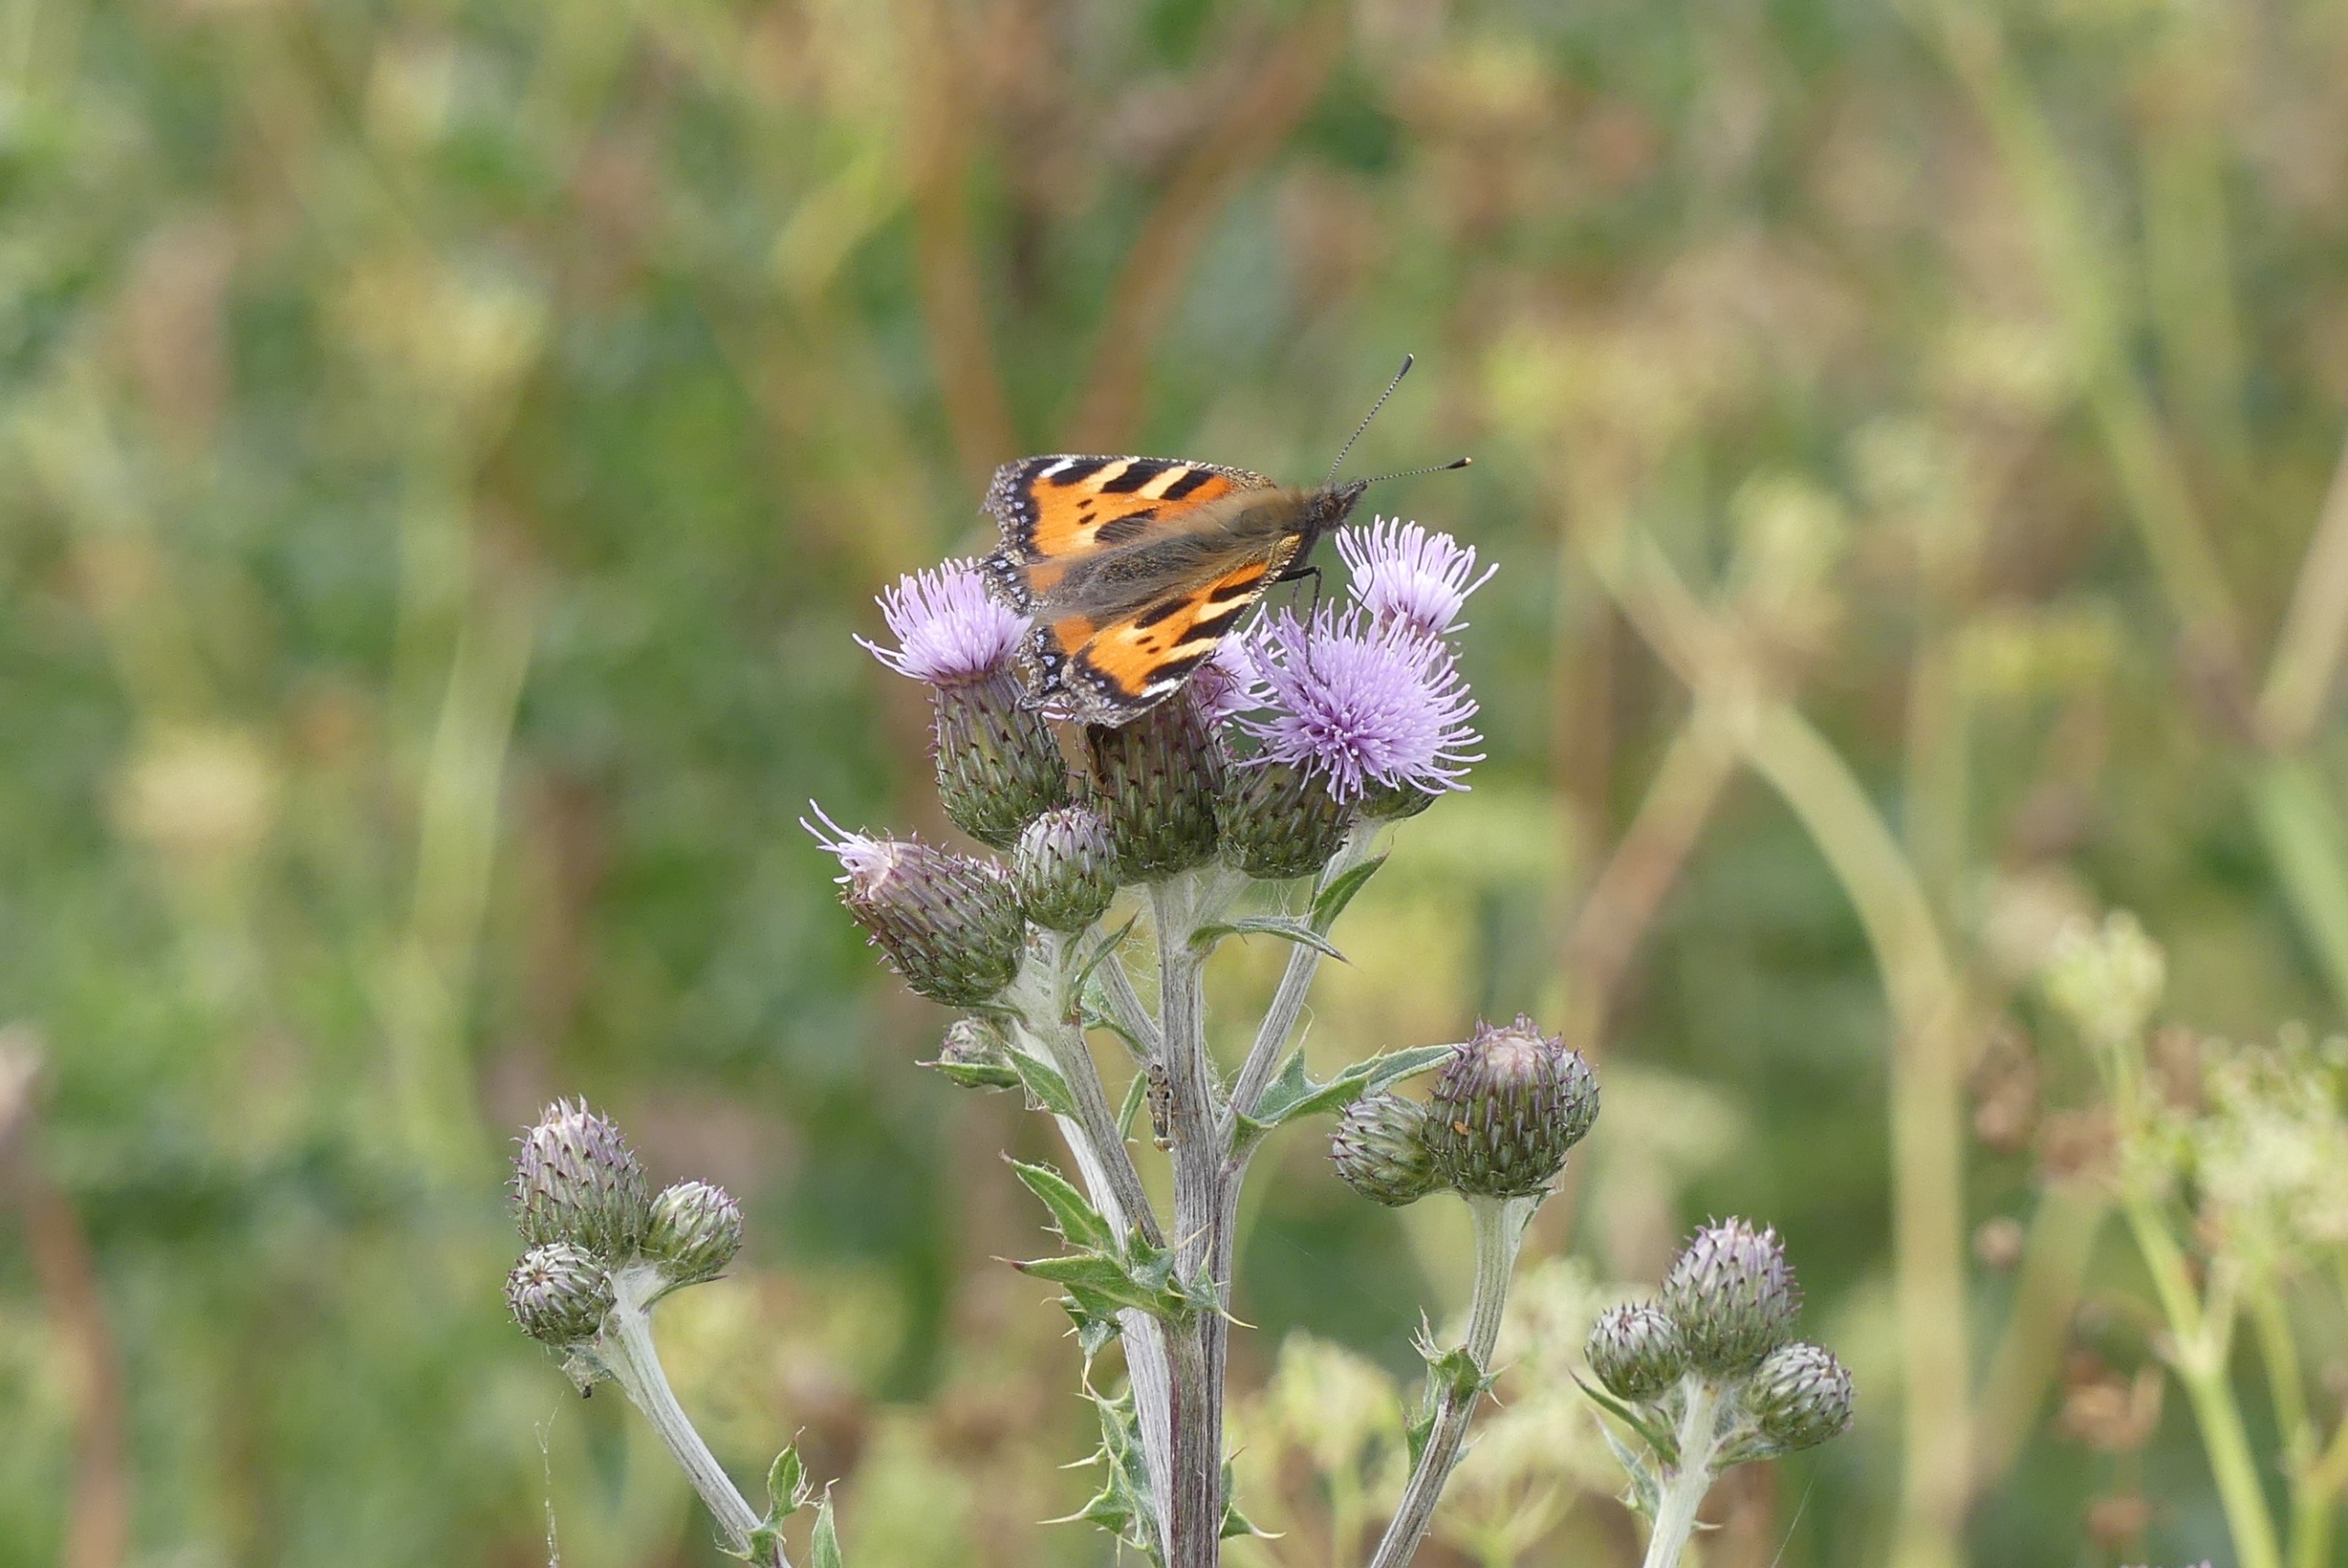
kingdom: Animalia
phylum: Arthropoda
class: Insecta
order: Lepidoptera
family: Nymphalidae
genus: Aglais
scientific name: Aglais urticae
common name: Nældens takvinge
